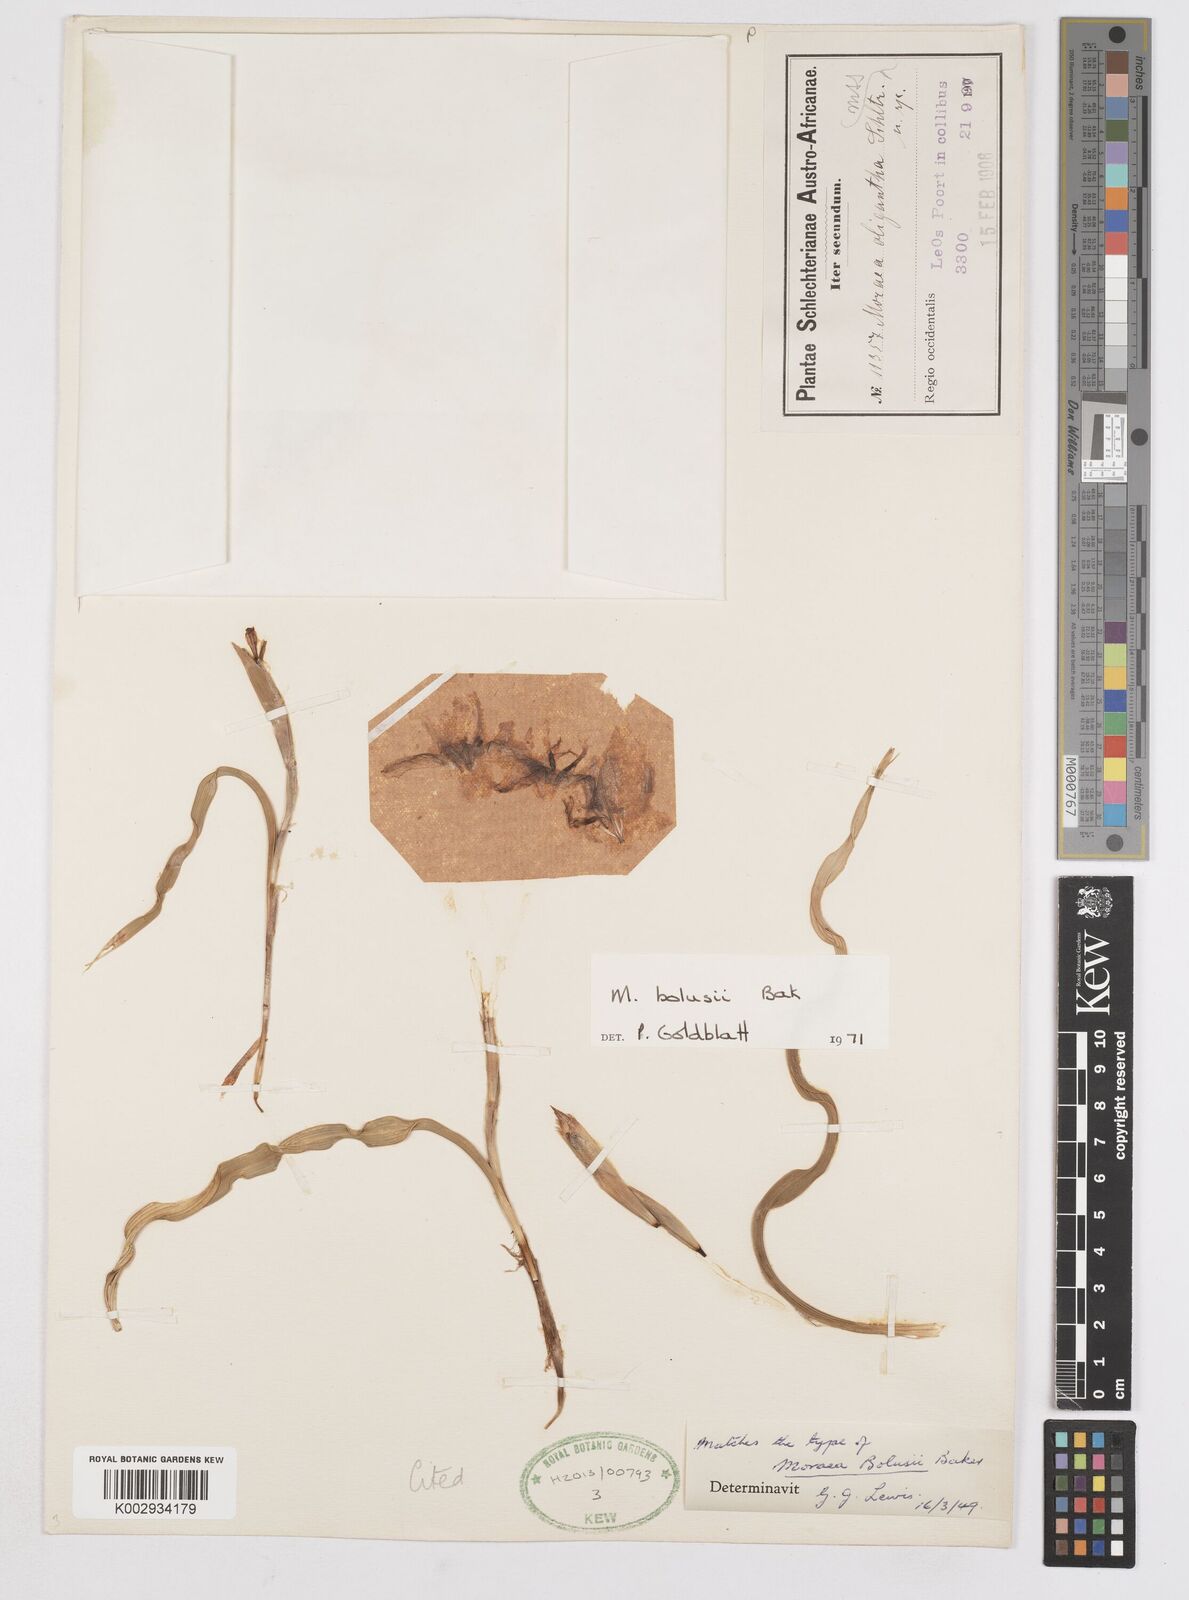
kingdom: Plantae
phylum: Tracheophyta
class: Liliopsida
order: Asparagales
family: Iridaceae
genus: Moraea
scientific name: Moraea bolusii
